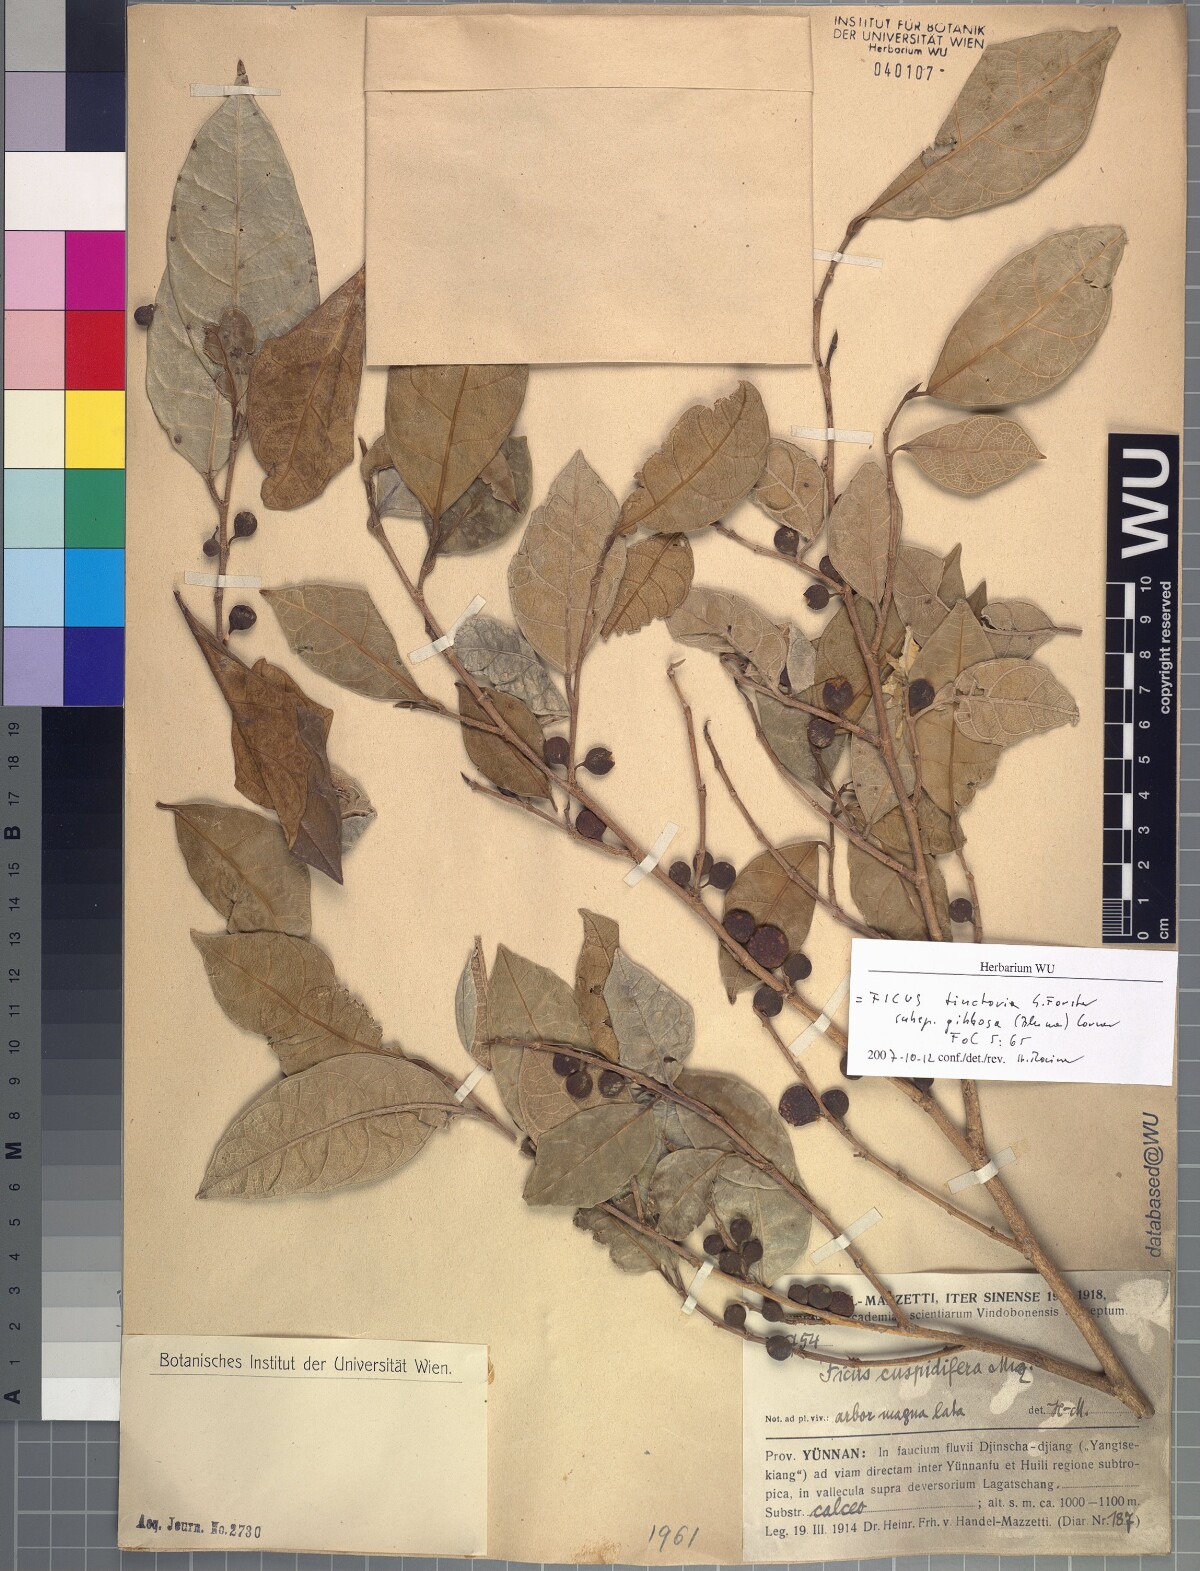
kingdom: Plantae
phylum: Tracheophyta
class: Magnoliopsida
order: Rosales
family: Moraceae
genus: Ficus
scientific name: Ficus tinctoria
